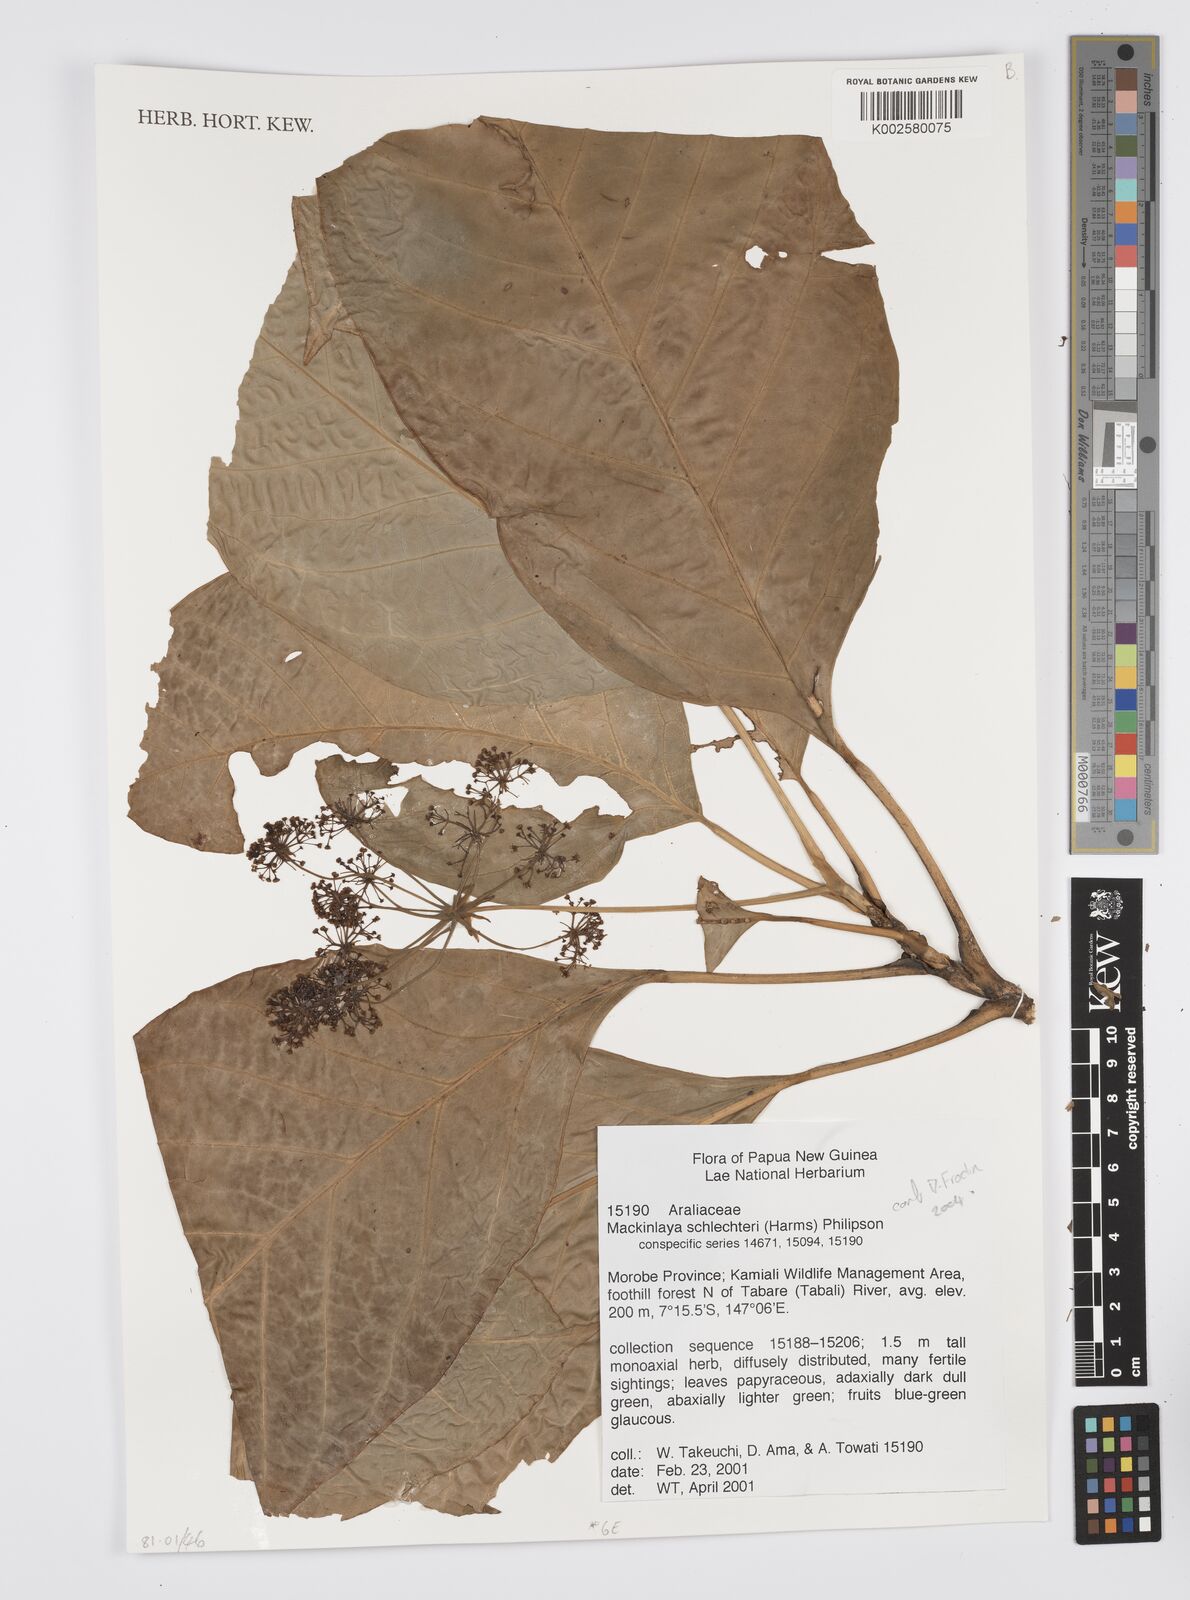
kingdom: Plantae
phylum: Tracheophyta
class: Magnoliopsida
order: Apiales
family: Apiaceae
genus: Mackinlaya
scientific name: Mackinlaya schlechteri
